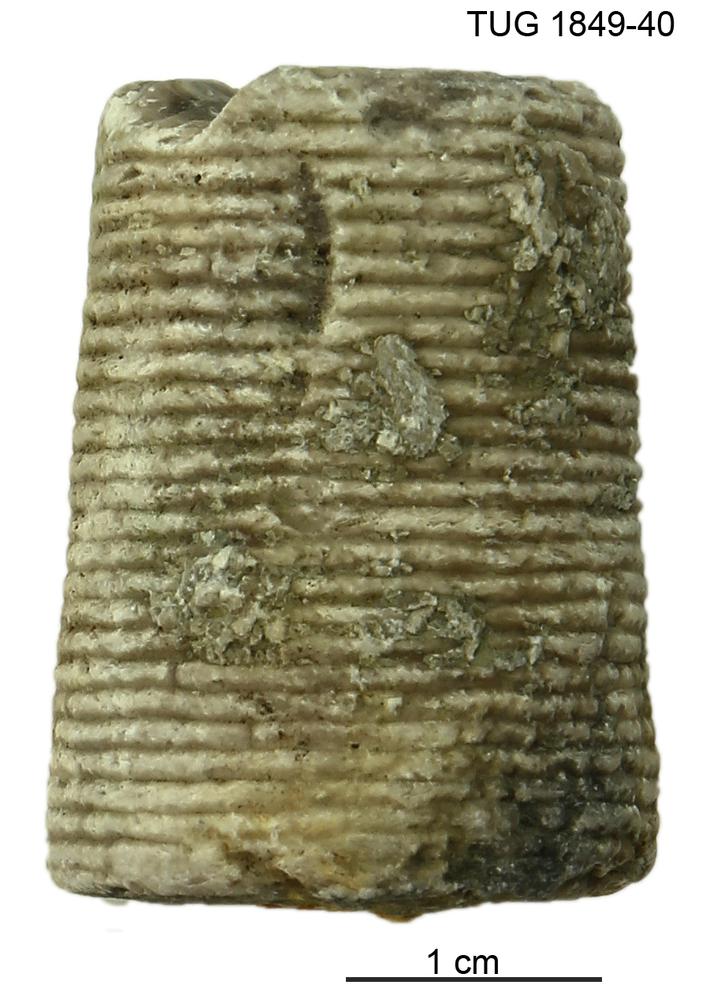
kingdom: Animalia
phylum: Echinodermata
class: Crinoidea
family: Crotalocrinitidae
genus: Crotalocrinites
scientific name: Crotalocrinites
